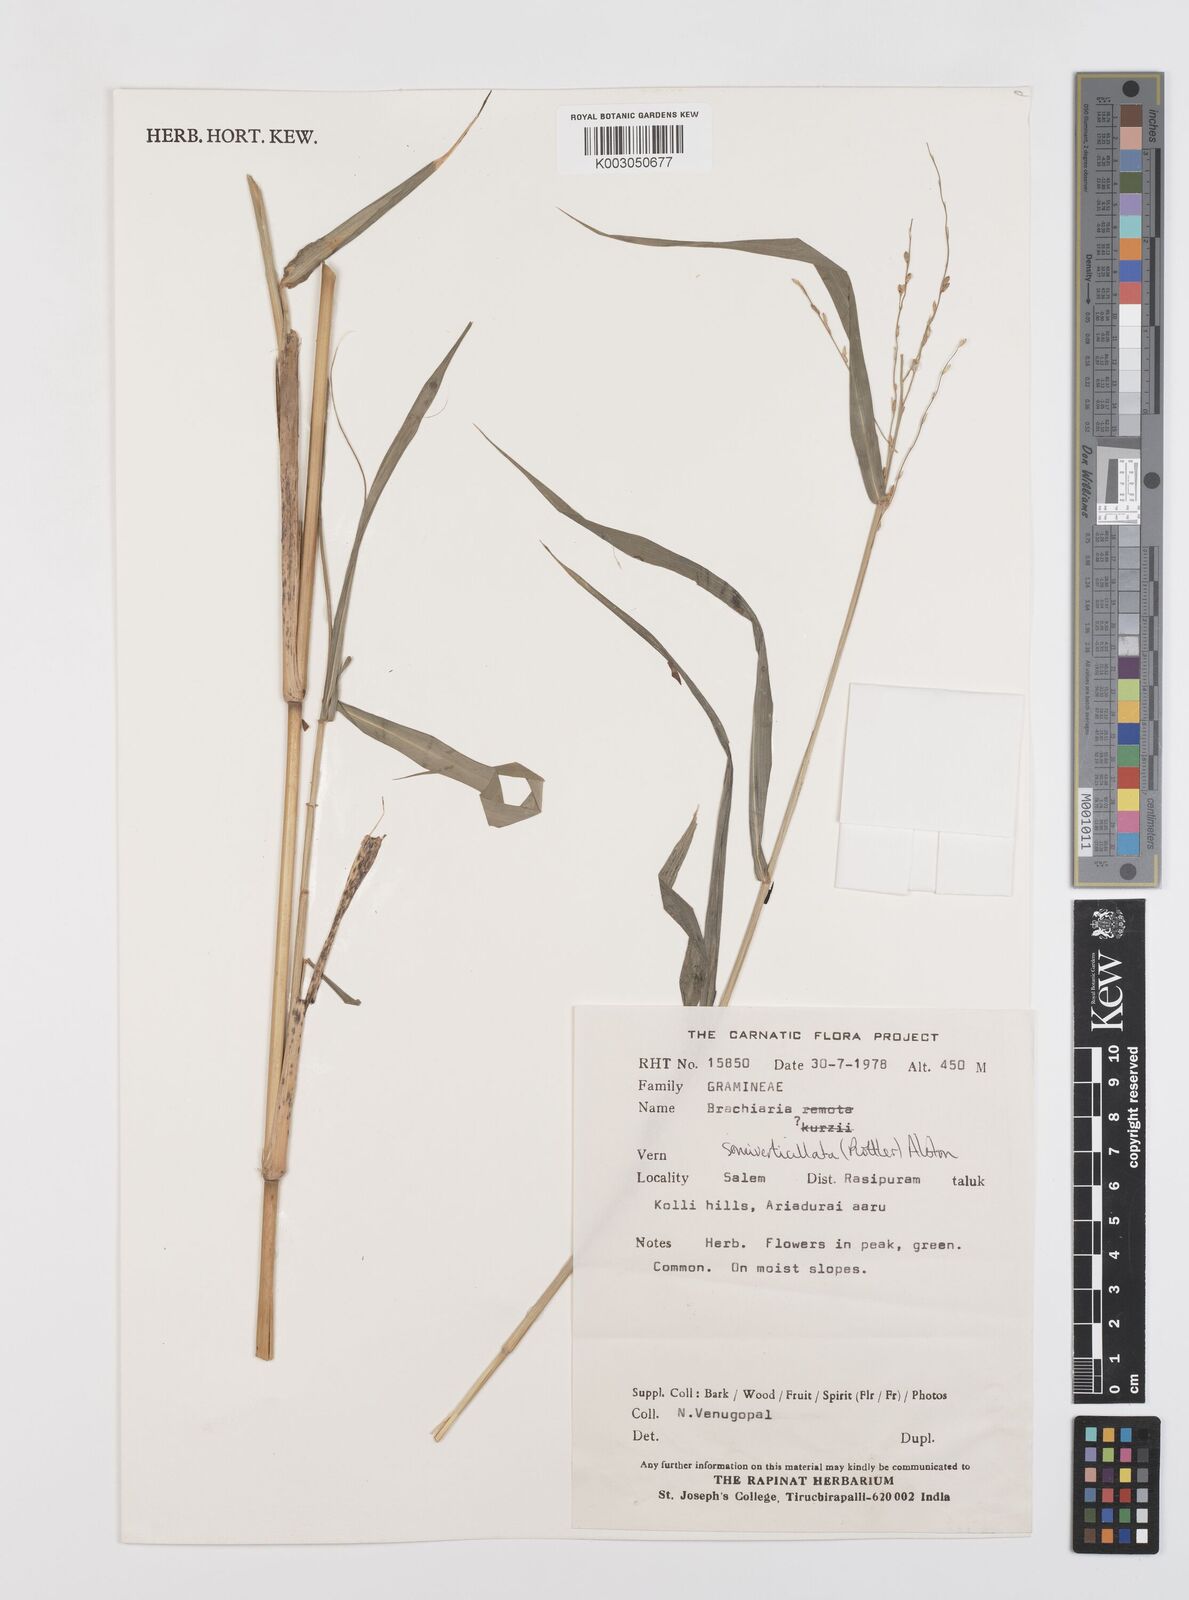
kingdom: Plantae
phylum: Tracheophyta
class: Liliopsida
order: Poales
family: Poaceae
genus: Urochloa
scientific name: Urochloa Brachiaria semiverticillata
